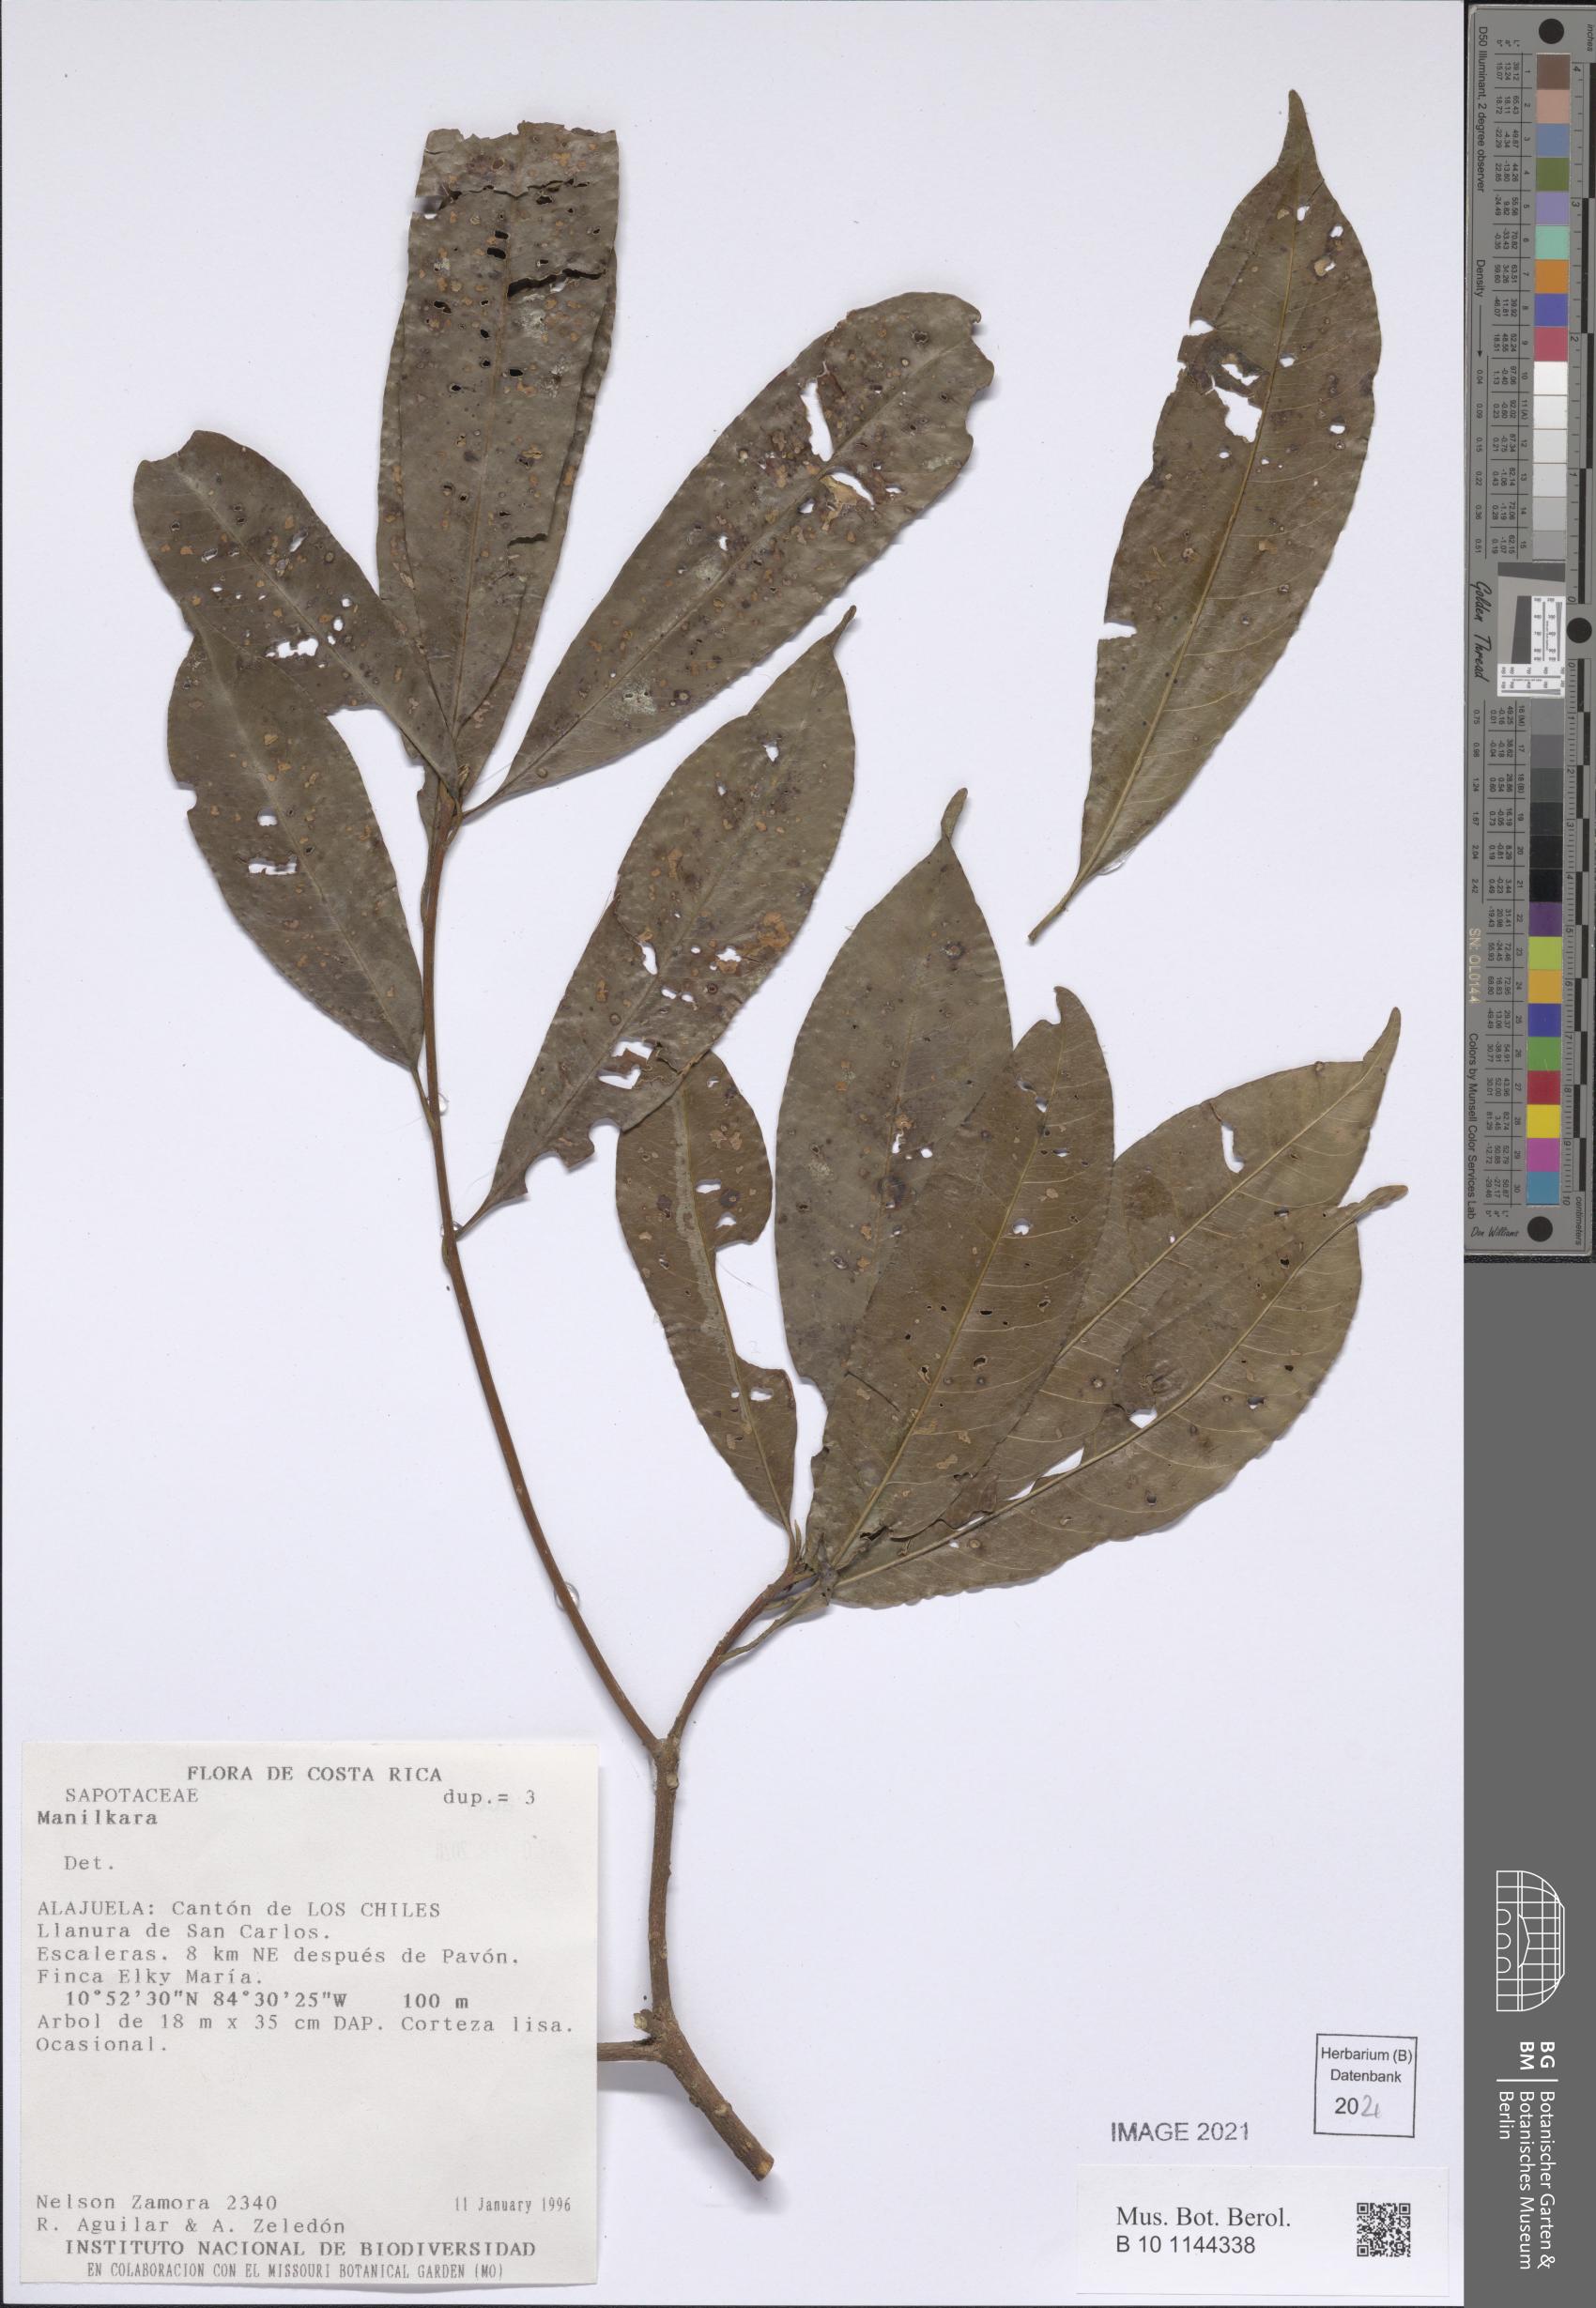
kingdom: Plantae
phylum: Tracheophyta
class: Magnoliopsida
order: Ericales
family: Sapotaceae
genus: Manilkara
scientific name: Manilkara
